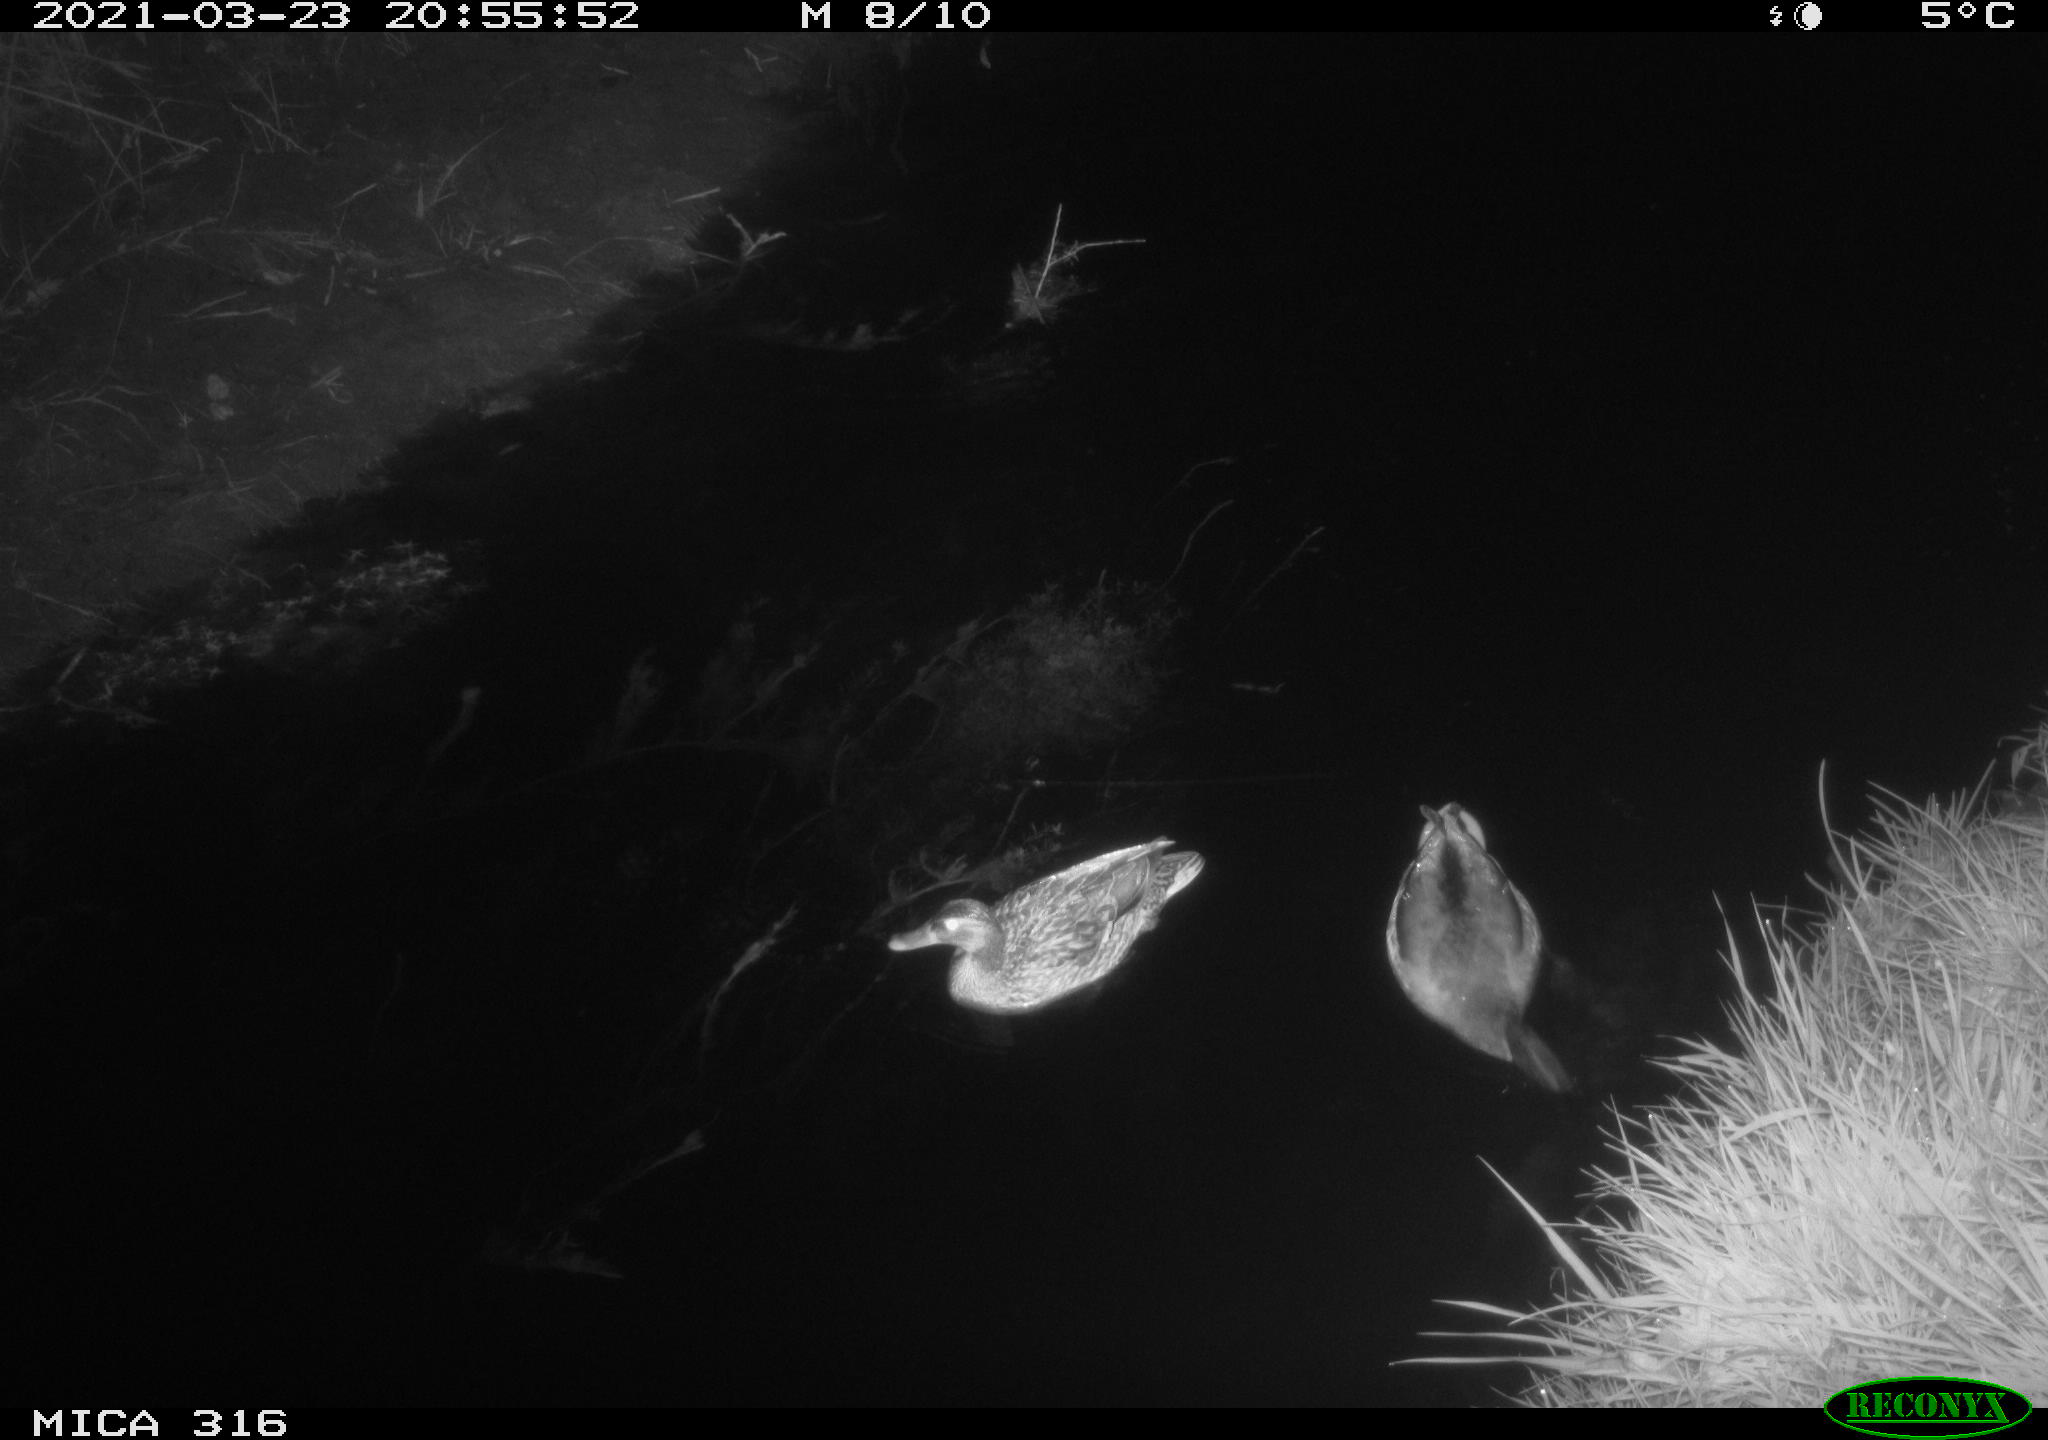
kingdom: Animalia
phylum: Chordata
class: Aves
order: Anseriformes
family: Anatidae
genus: Anas
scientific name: Anas platyrhynchos
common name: Mallard
